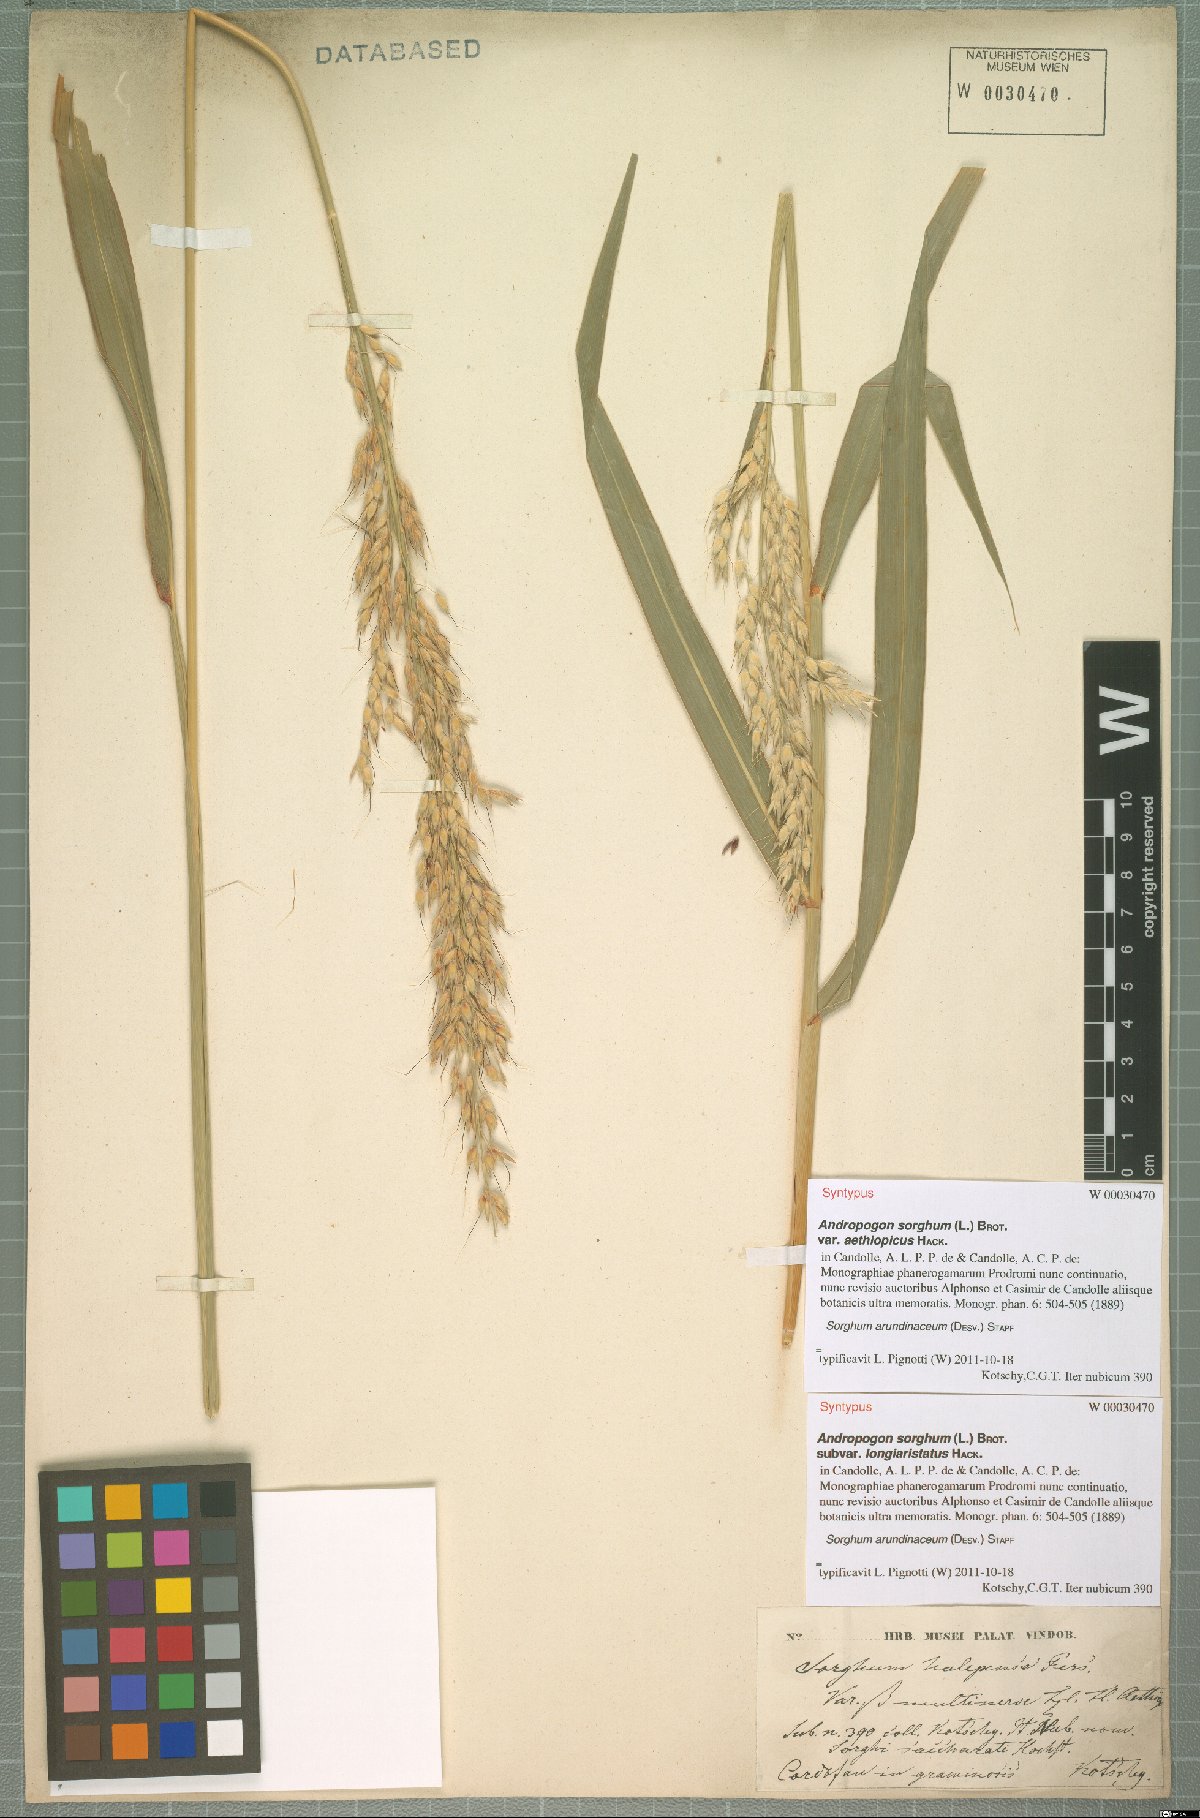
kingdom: Plantae
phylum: Tracheophyta
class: Liliopsida
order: Poales
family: Poaceae
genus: Sorghum
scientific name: Sorghum arundinaceum
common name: Sorghum
